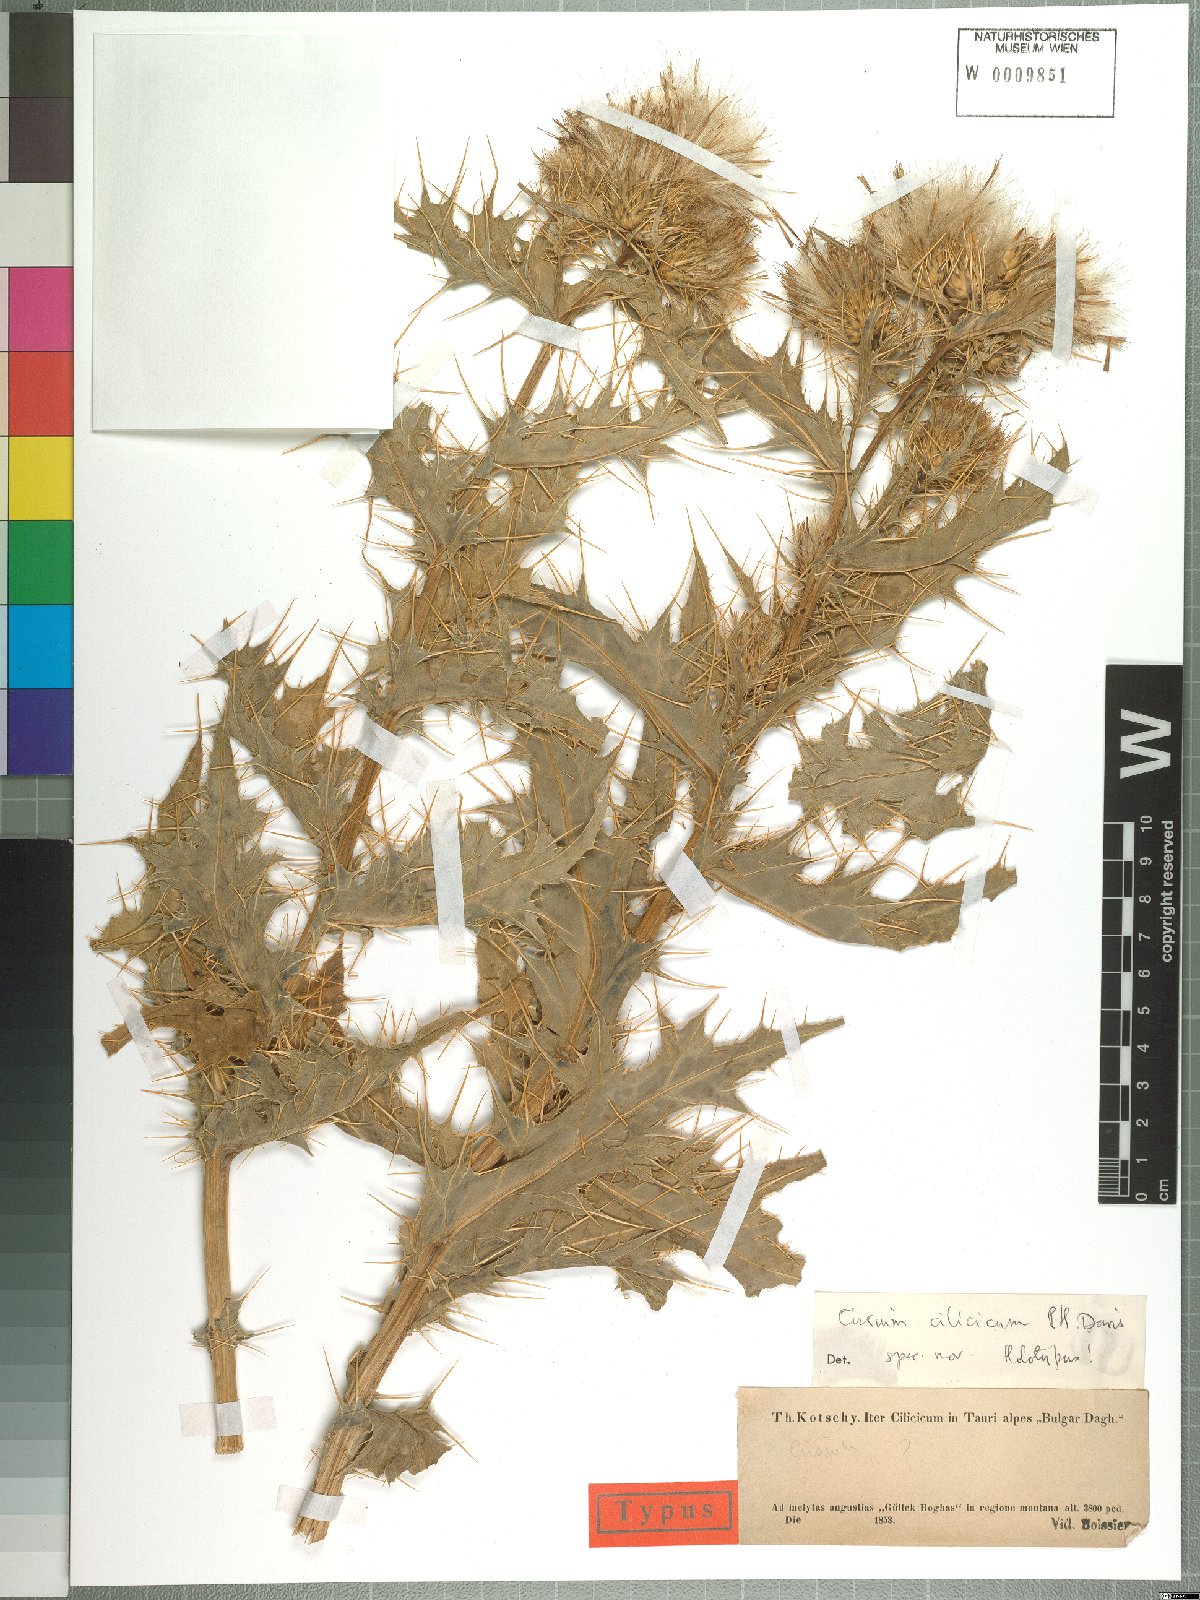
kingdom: Plantae
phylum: Tracheophyta
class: Magnoliopsida
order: Asterales
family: Asteraceae
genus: Cirsium
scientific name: Cirsium cilicicum
